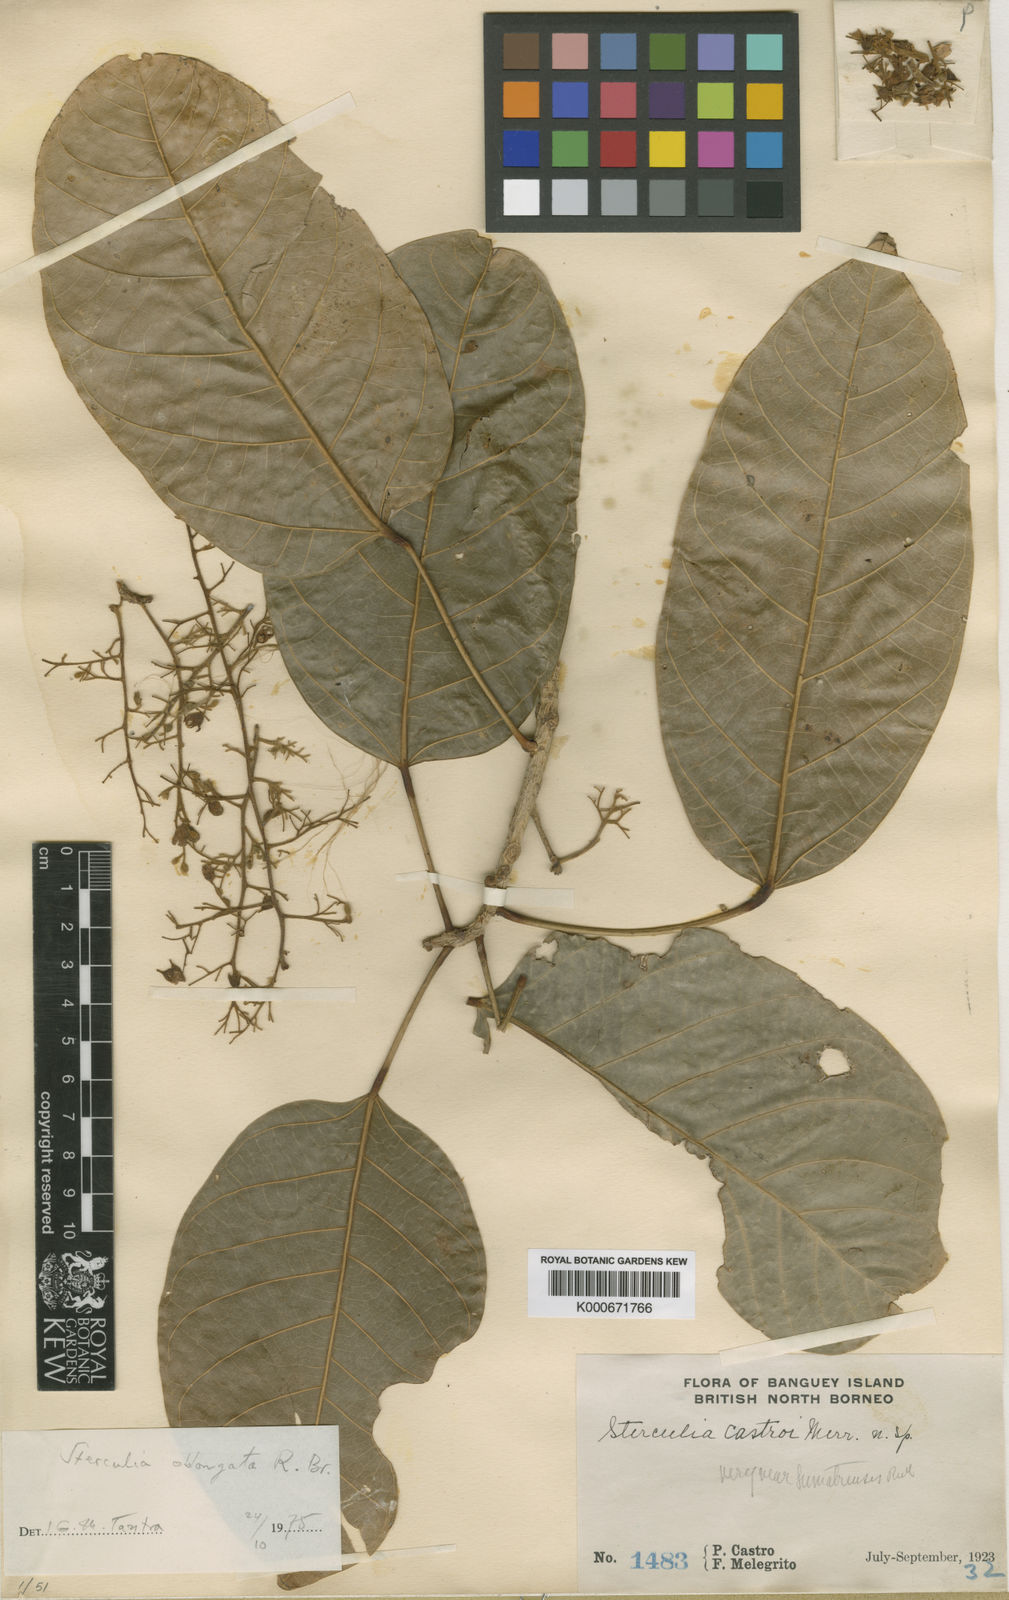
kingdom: Plantae
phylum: Tracheophyta
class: Magnoliopsida
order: Malvales
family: Malvaceae
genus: Sterculia
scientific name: Sterculia oblongata
